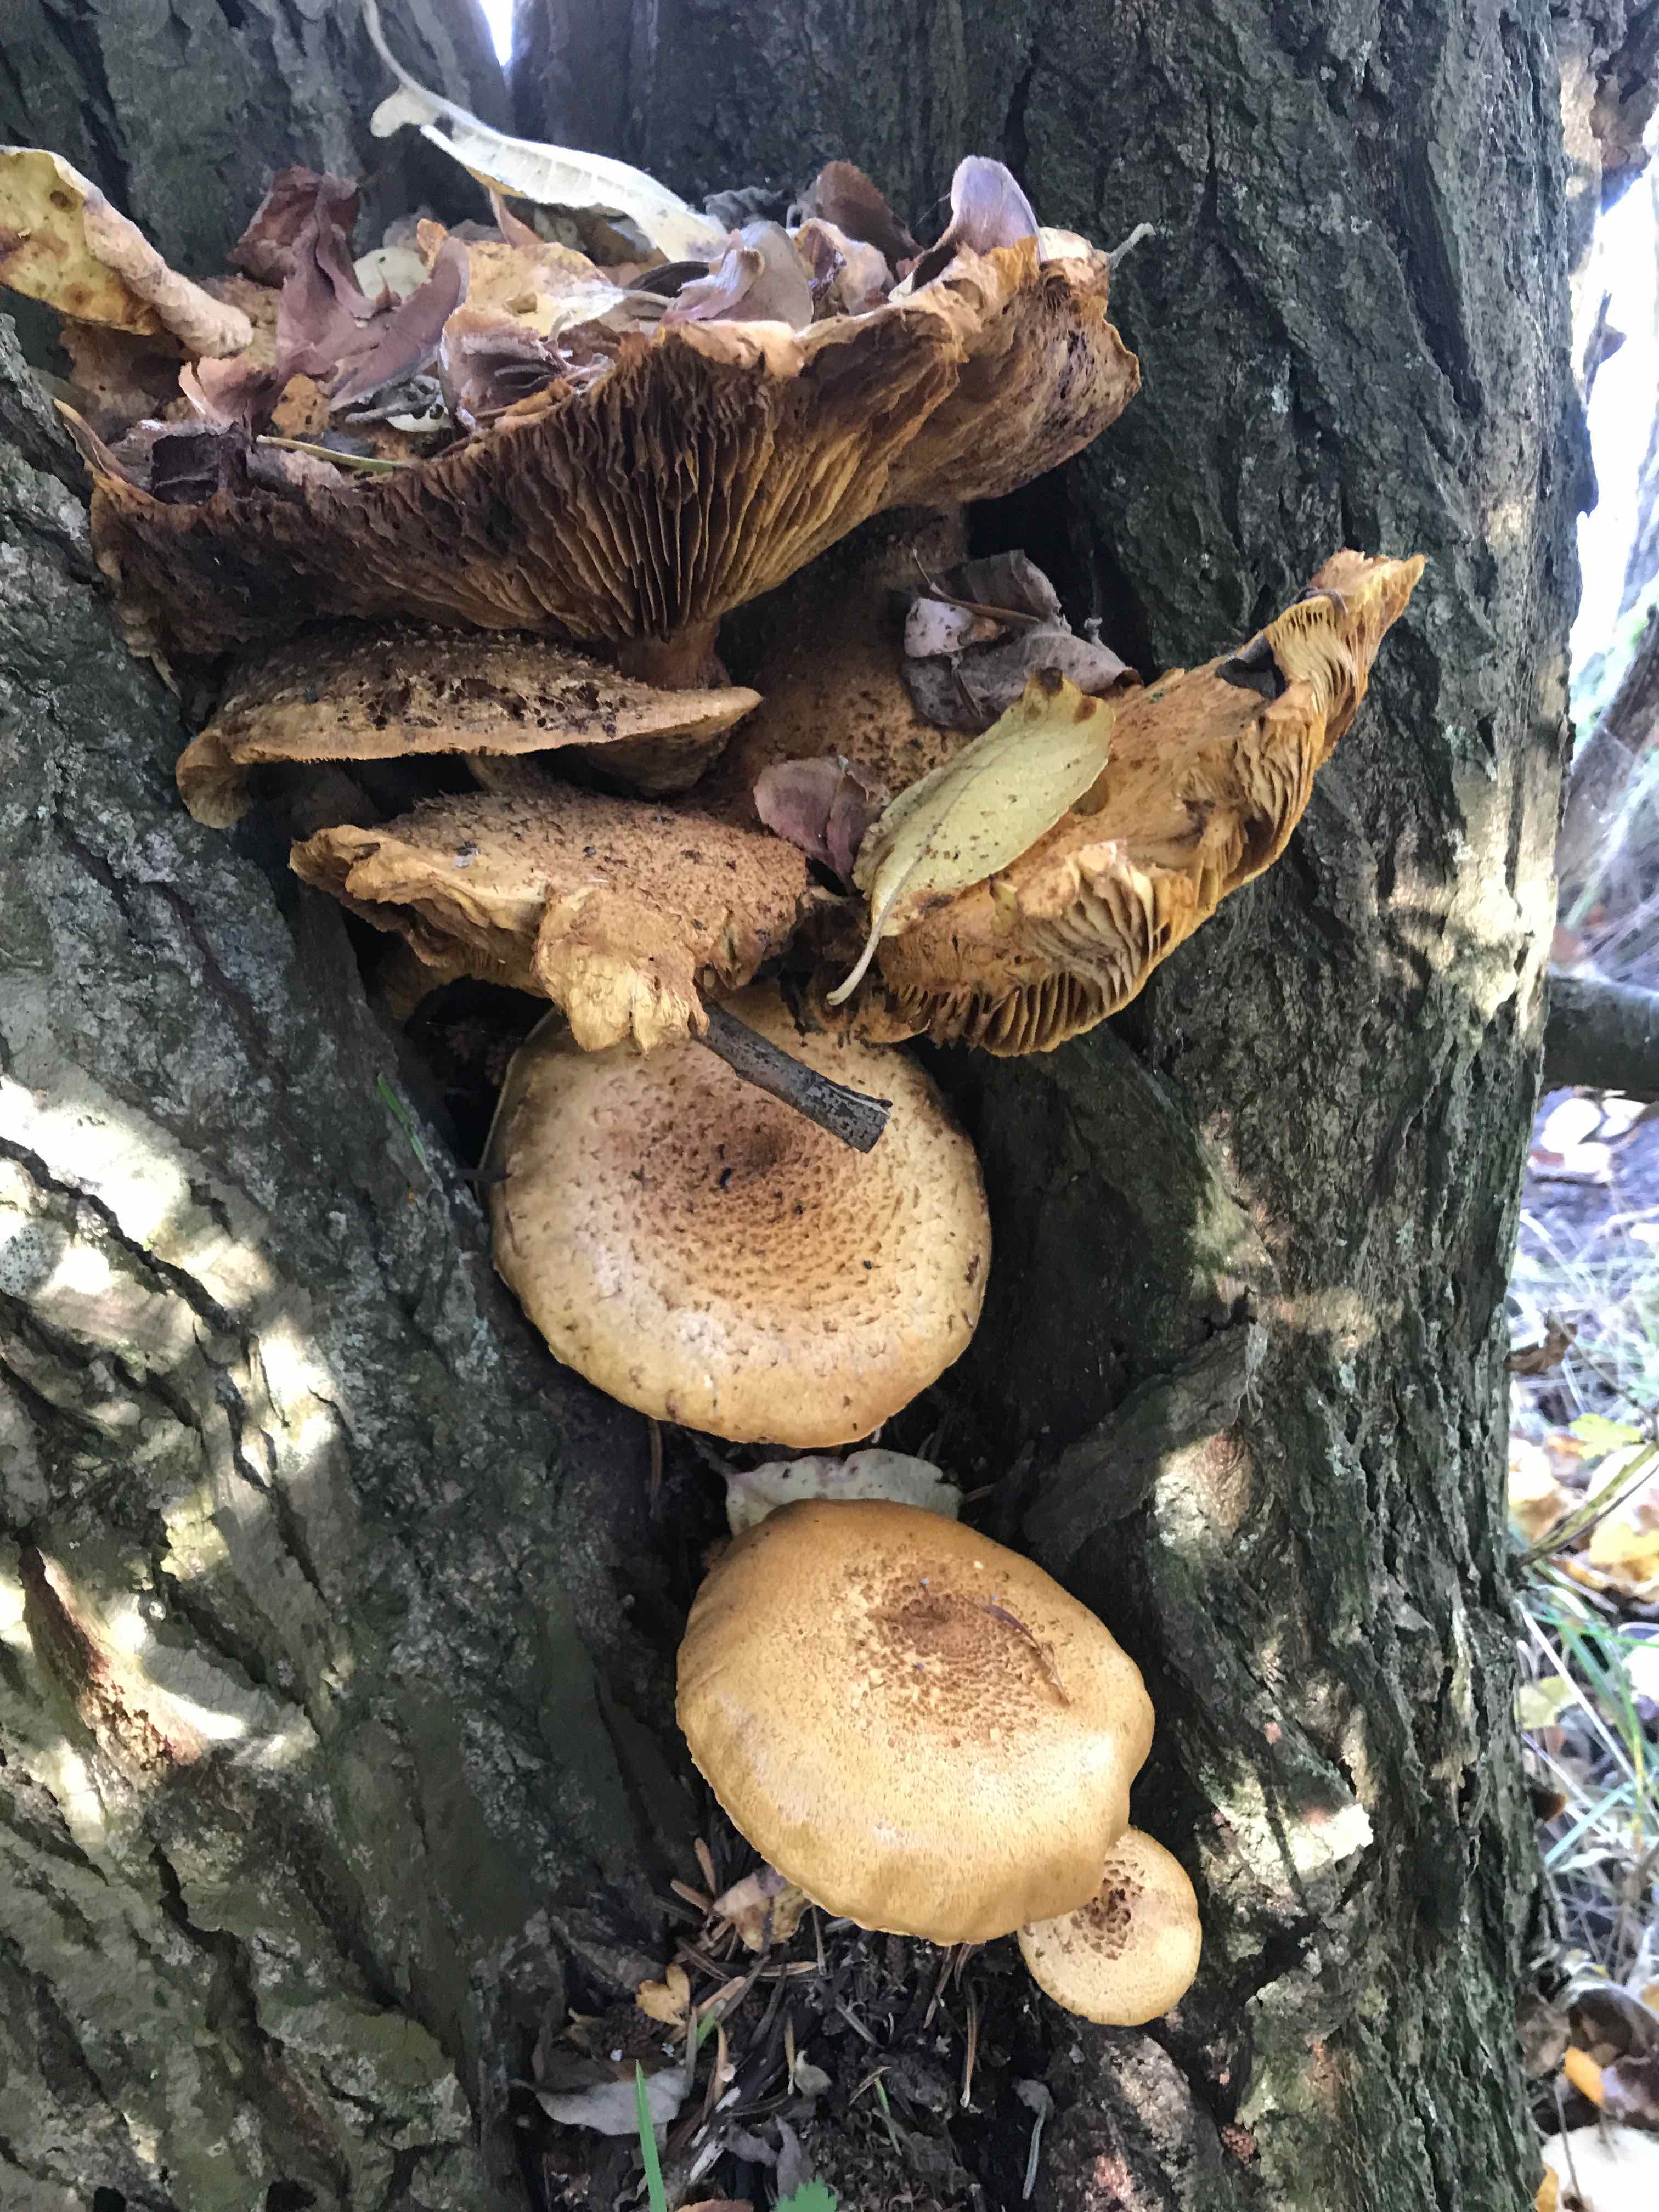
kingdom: Fungi
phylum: Basidiomycota
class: Agaricomycetes
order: Agaricales
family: Strophariaceae
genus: Pholiota
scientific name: Pholiota squarrosa
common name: krumskællet skælhat
